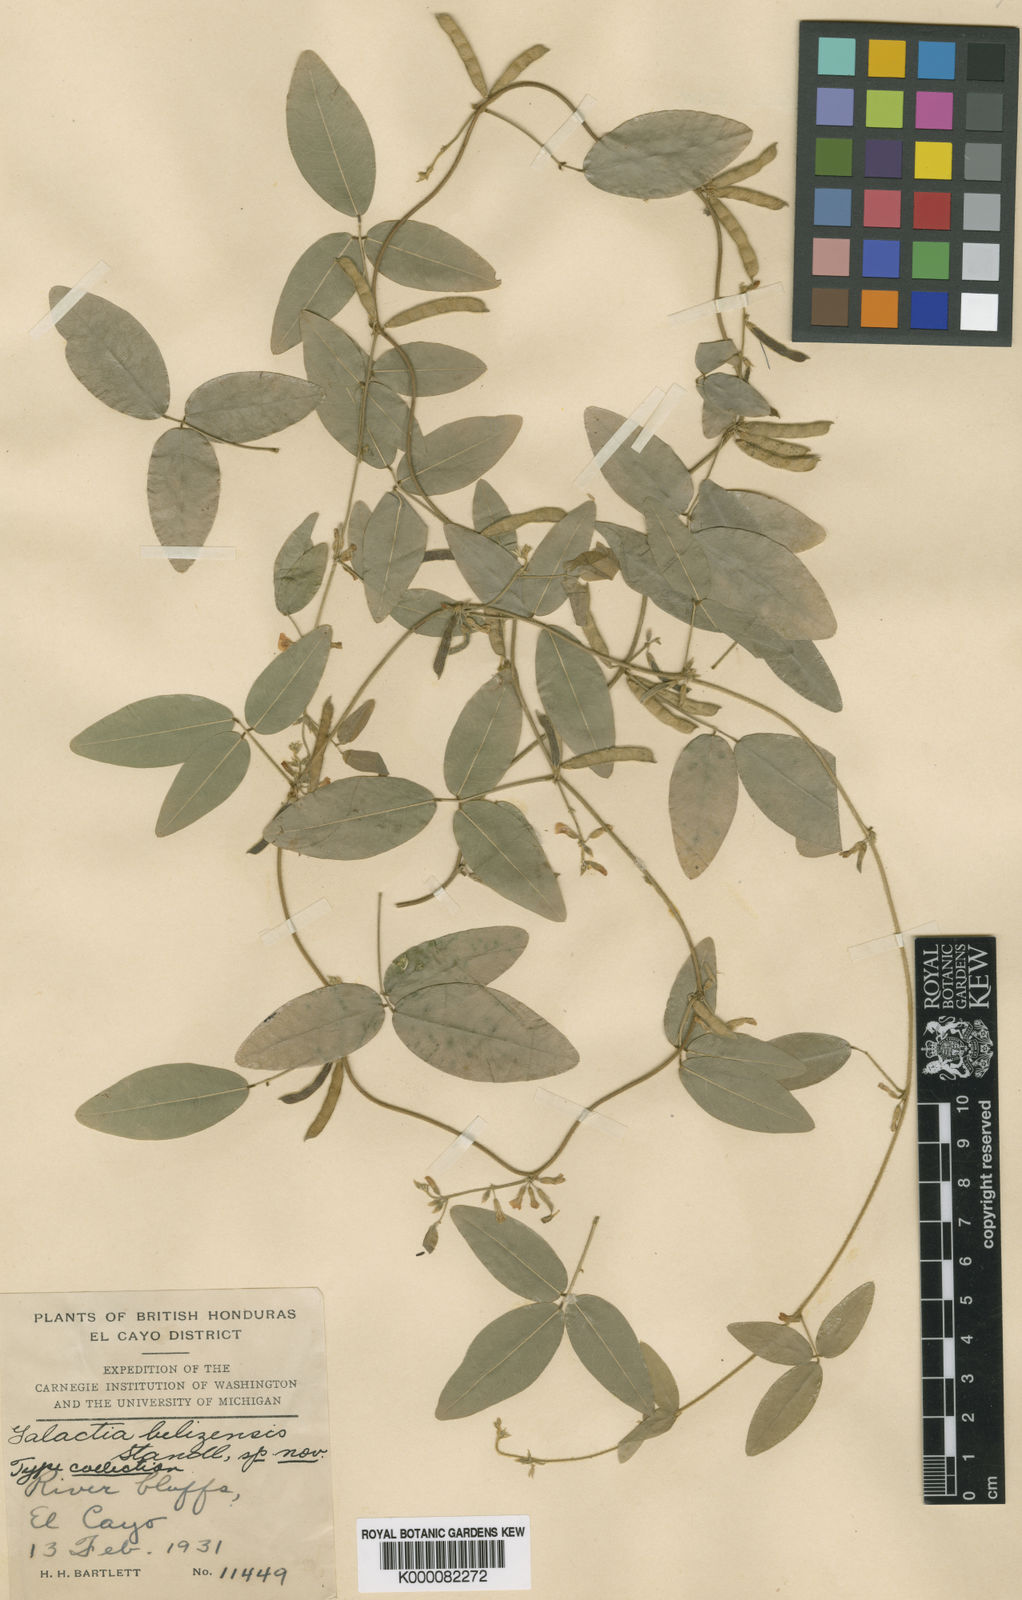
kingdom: Plantae
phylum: Tracheophyta
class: Magnoliopsida
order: Fabales
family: Fabaceae
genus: Calopogonium
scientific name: Calopogonium galactioides
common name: Legume
